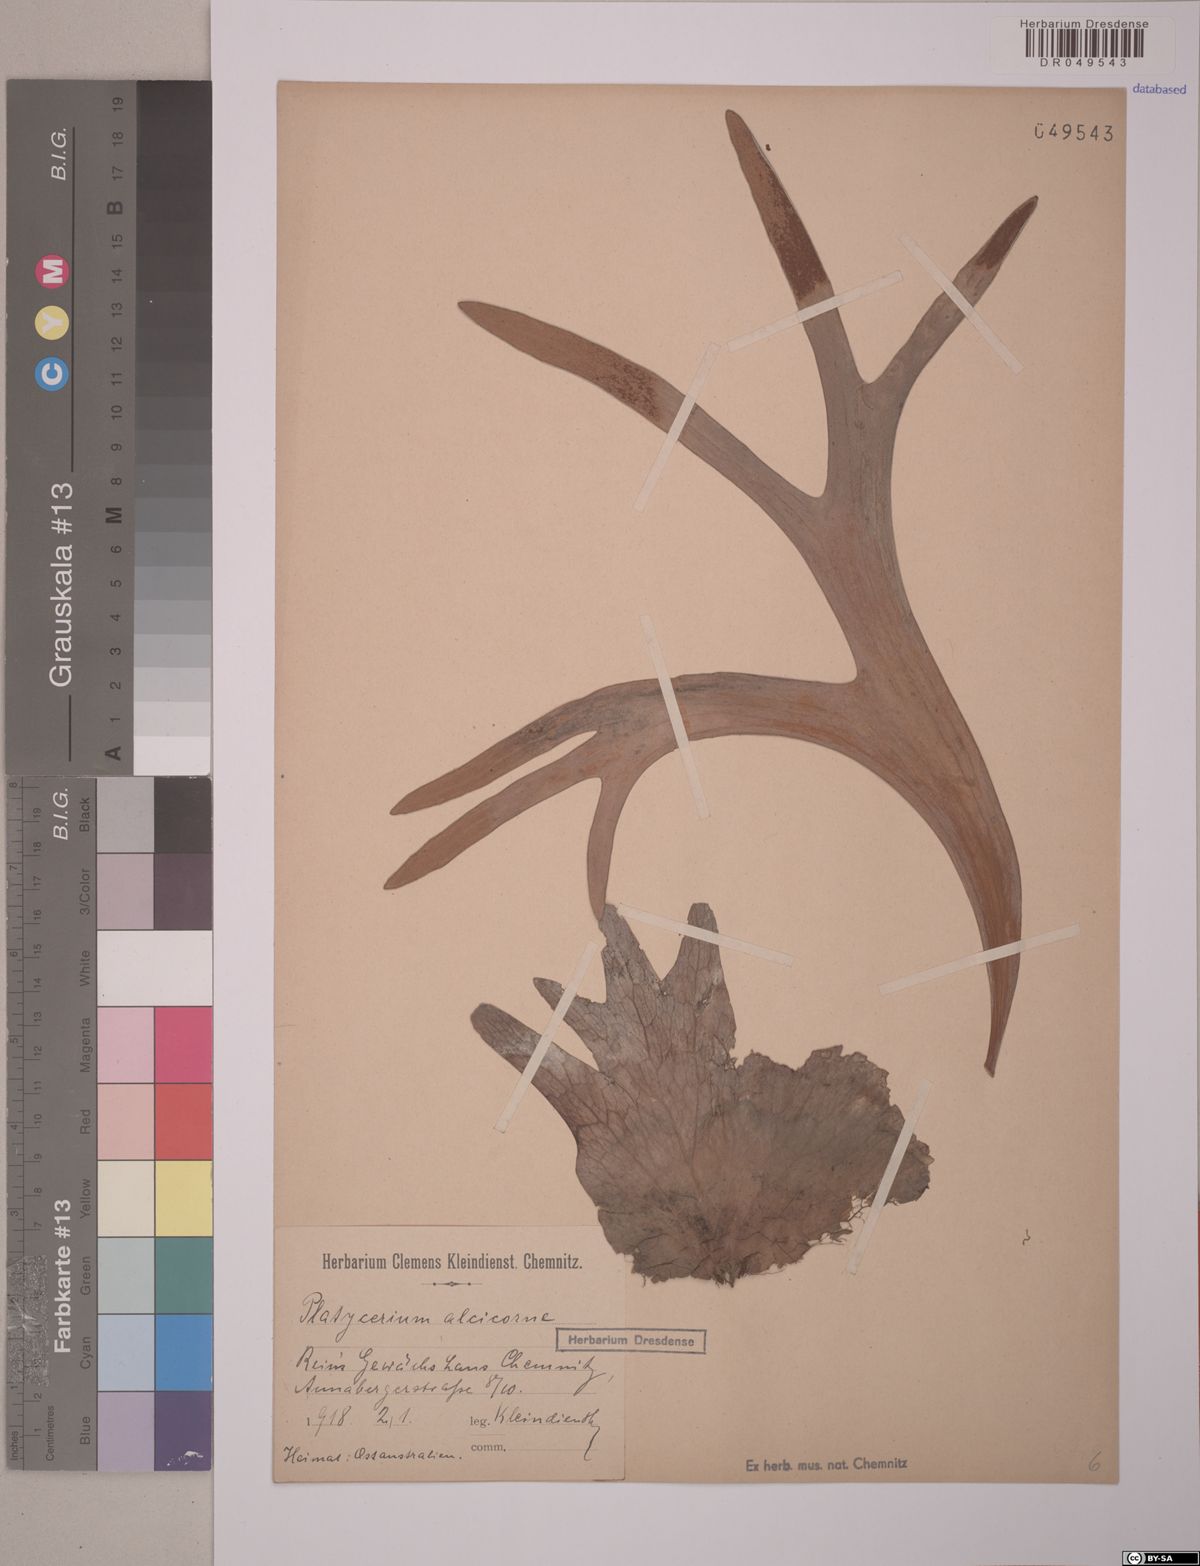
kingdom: Plantae
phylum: Tracheophyta
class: Polypodiopsida
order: Polypodiales
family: Polypodiaceae
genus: Platycerium
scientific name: Platycerium alcicorne
